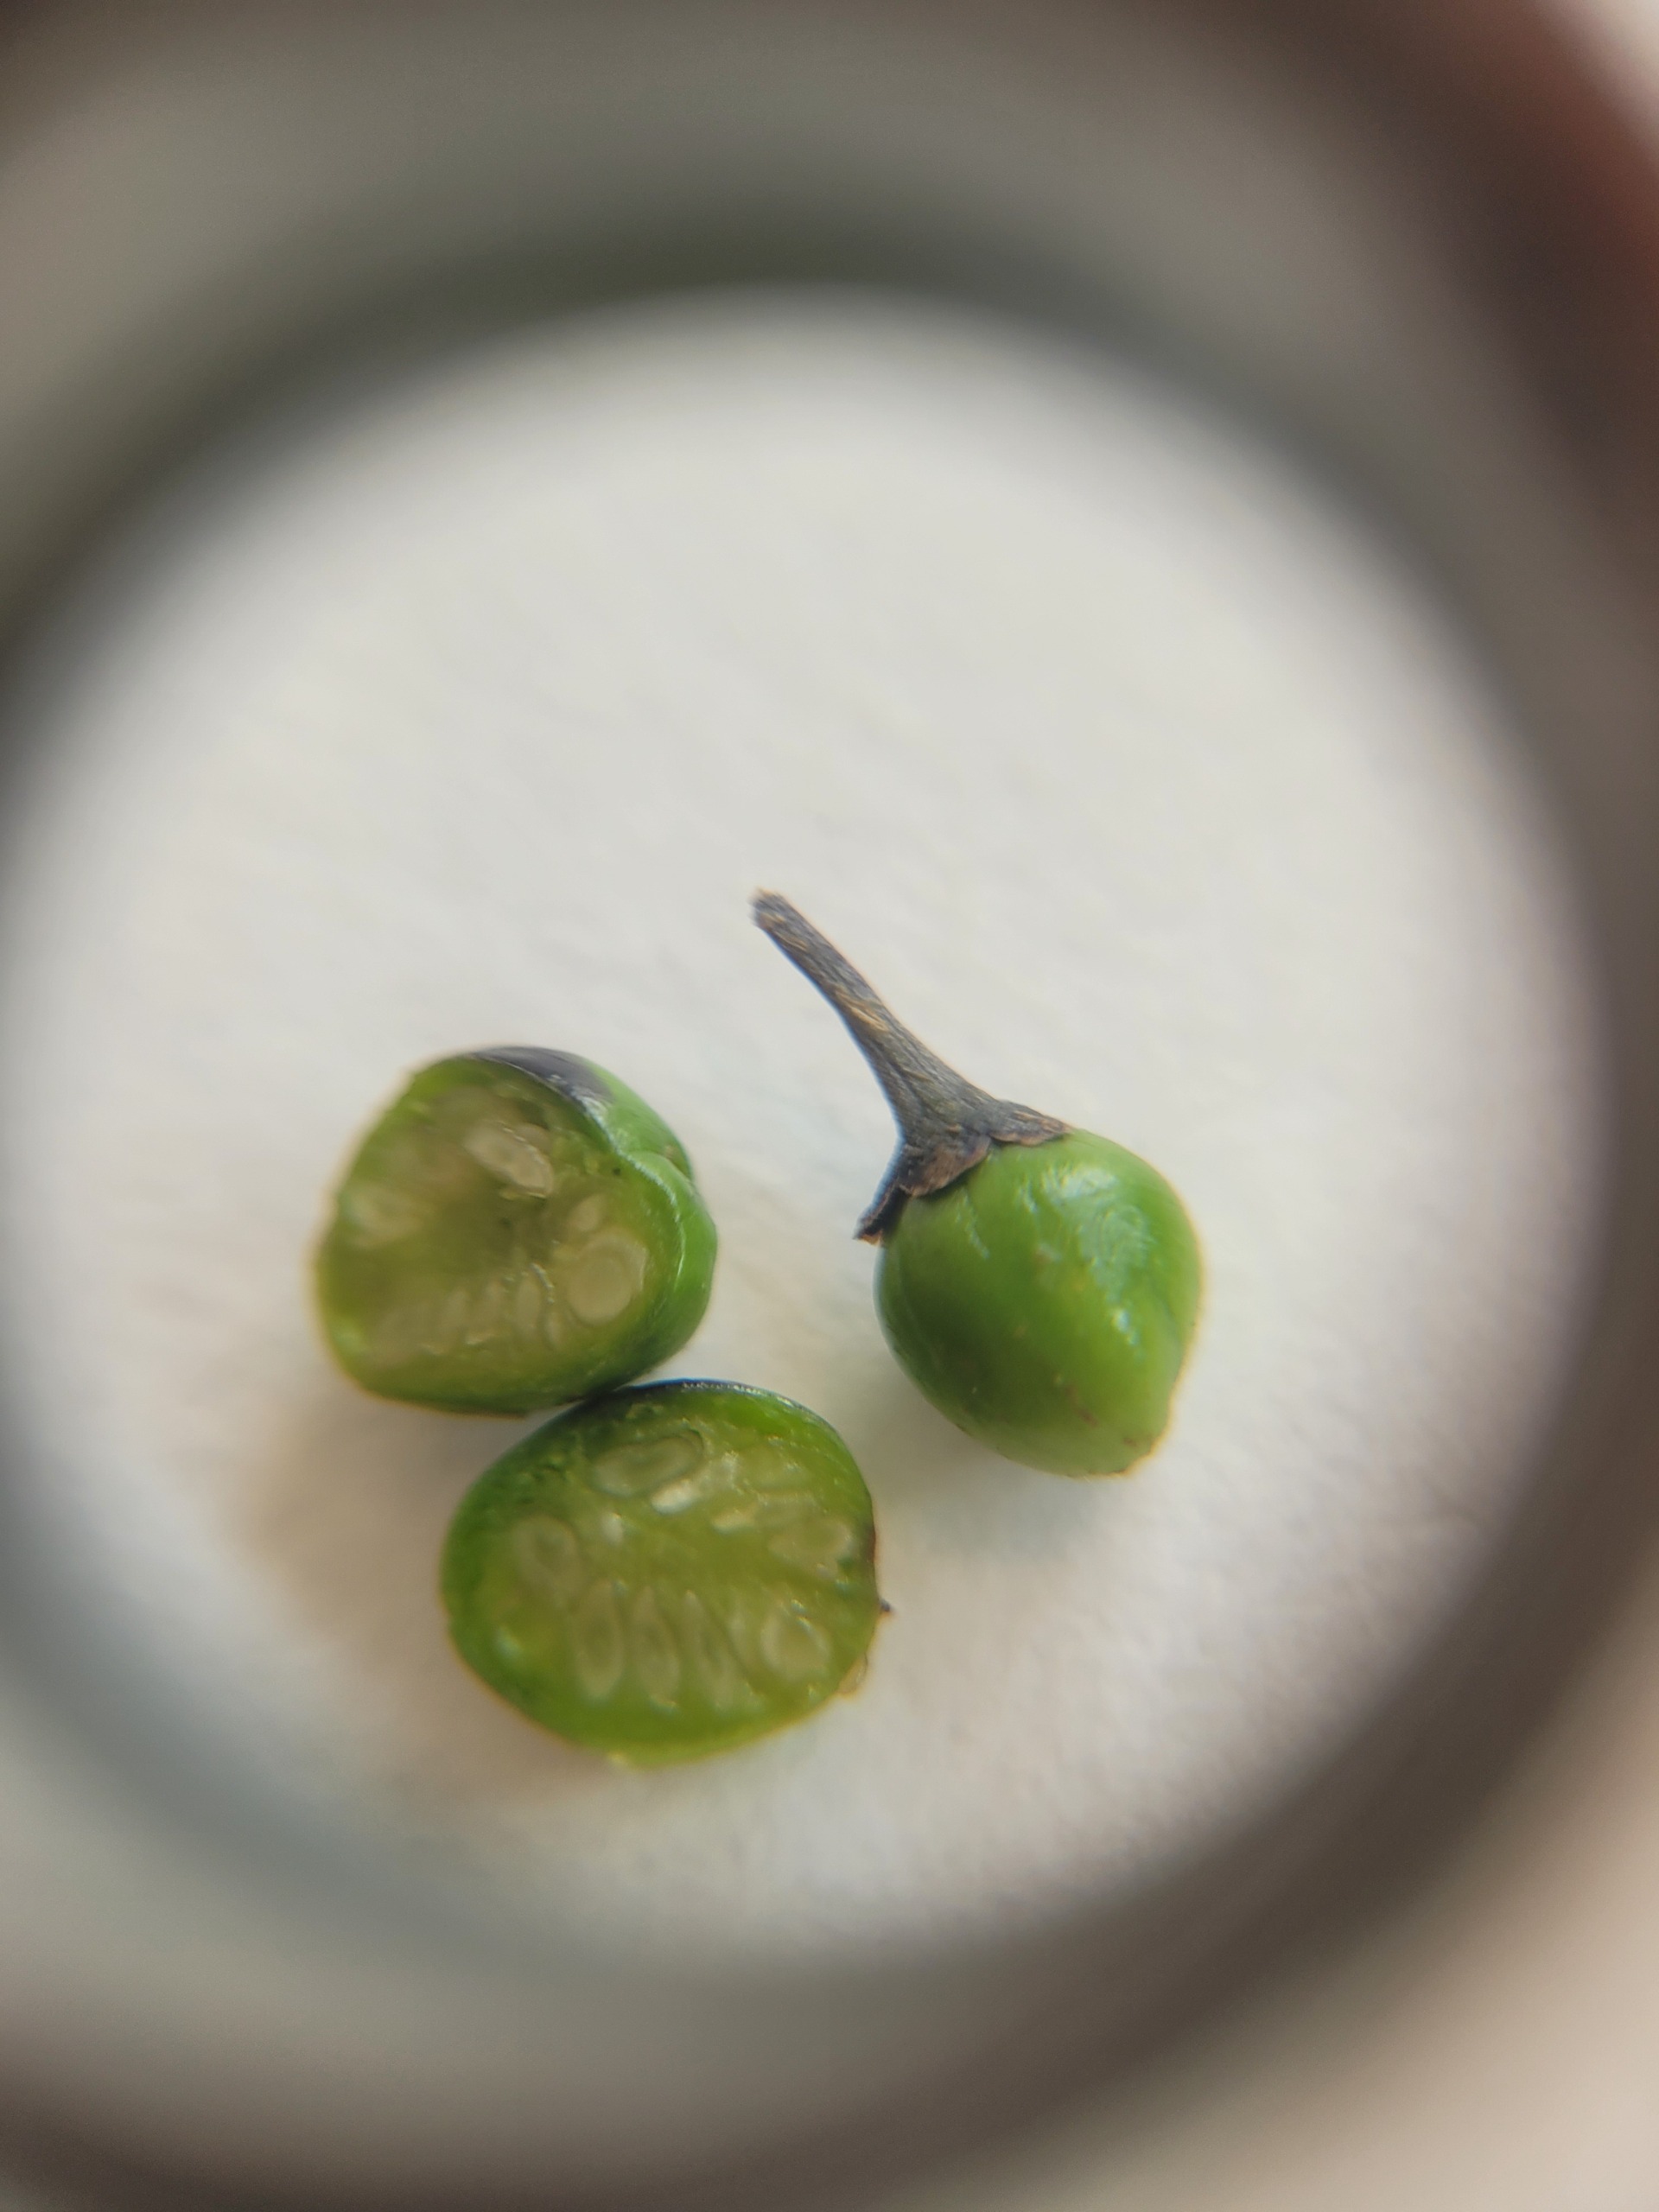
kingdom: Plantae
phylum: Tracheophyta
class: Magnoliopsida
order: Solanales
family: Solanaceae
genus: Solanum
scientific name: Solanum dulcamara
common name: Bittersød natskygge
